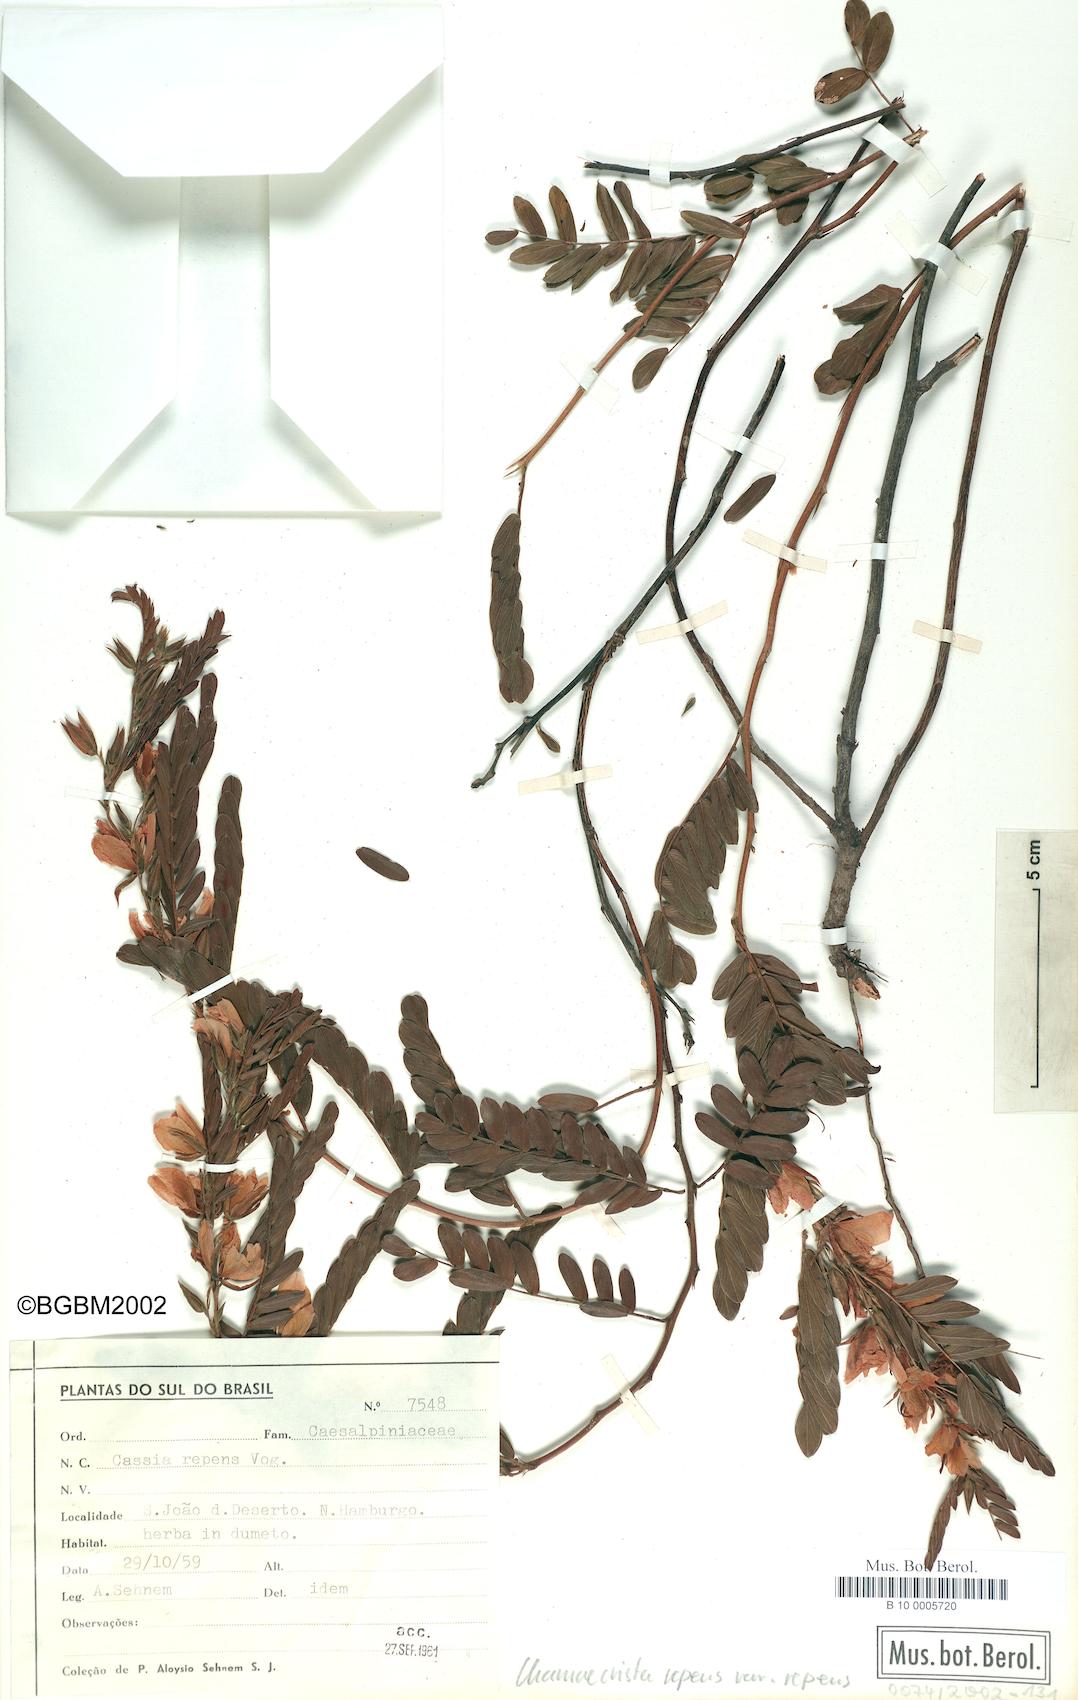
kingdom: Plantae
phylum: Tracheophyta
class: Magnoliopsida
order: Fabales
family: Fabaceae
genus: Chamaecrista
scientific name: Chamaecrista repens
